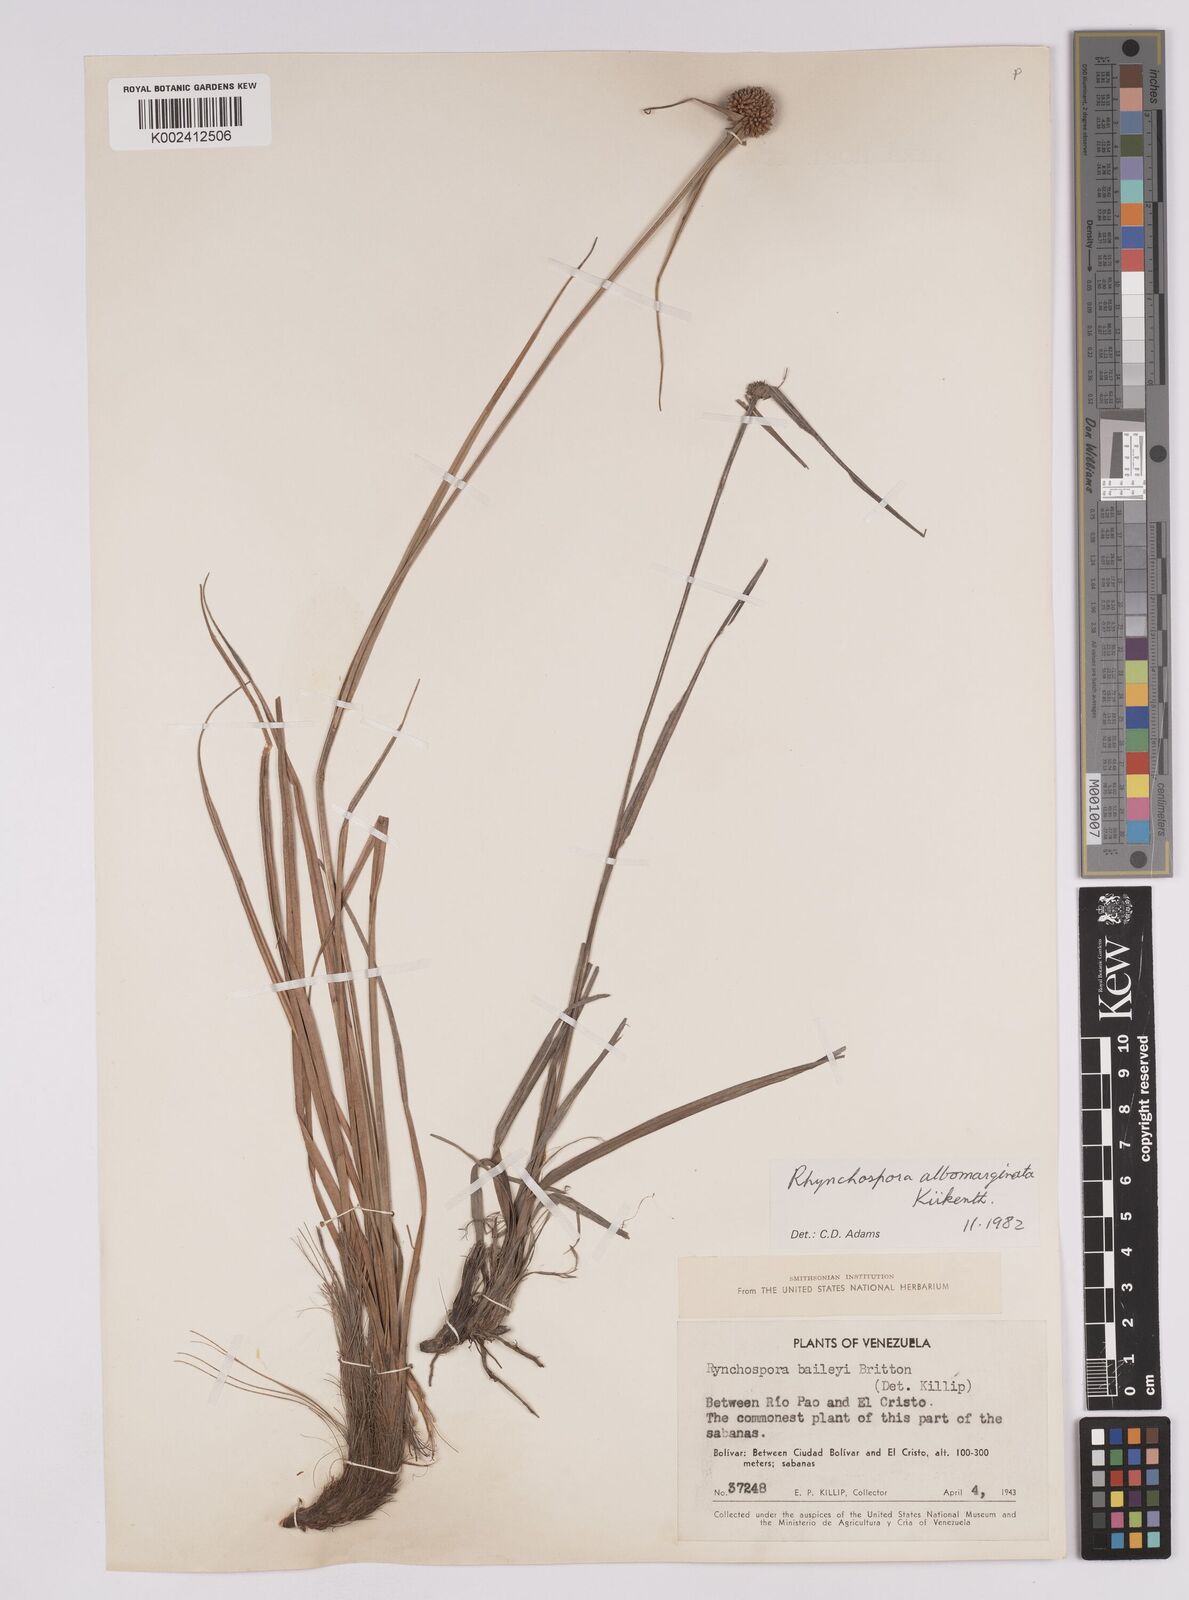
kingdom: Plantae
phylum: Tracheophyta
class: Liliopsida
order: Poales
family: Cyperaceae
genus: Rhynchospora
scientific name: Rhynchospora albomarginata
